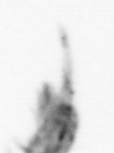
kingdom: Animalia
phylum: Arthropoda
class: Copepoda
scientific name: Copepoda
